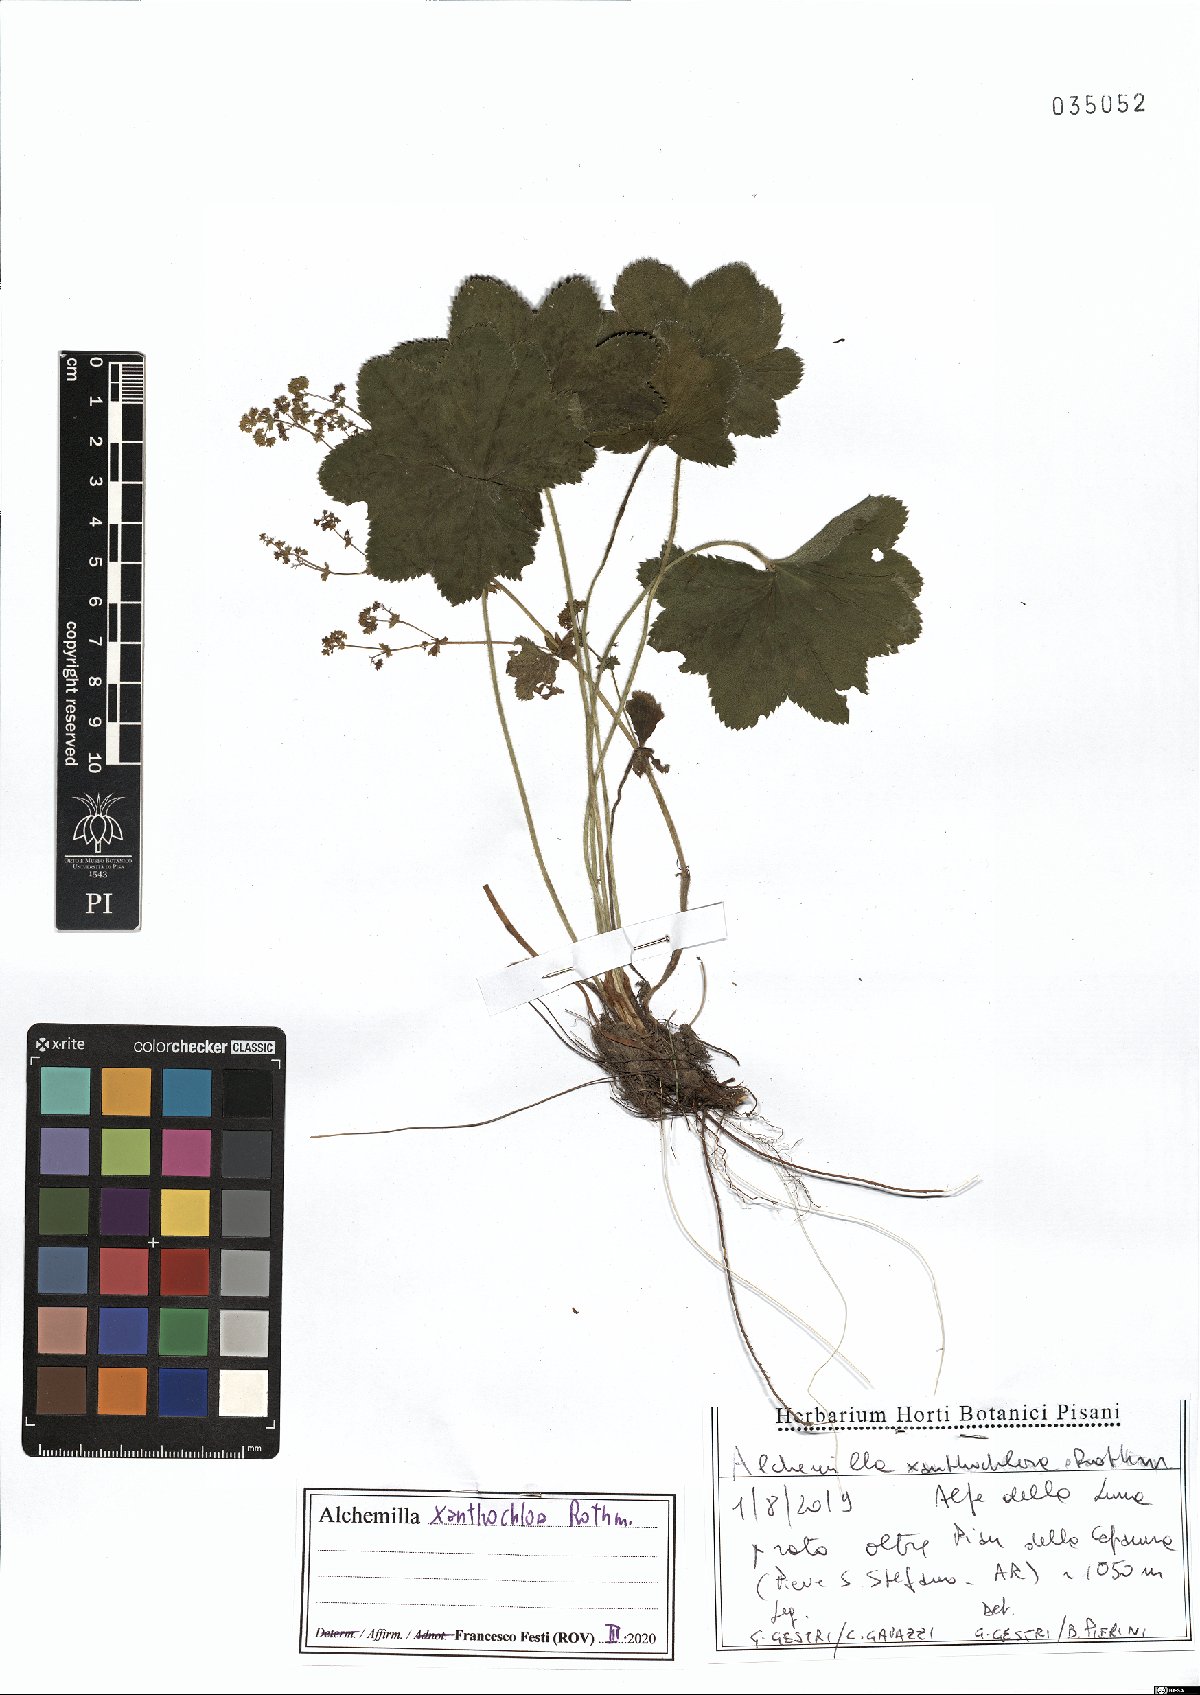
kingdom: Plantae
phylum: Tracheophyta
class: Magnoliopsida
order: Rosales
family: Rosaceae
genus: Alchemilla
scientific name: Alchemilla xanthochlora
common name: Intermediate lady's-mantle
